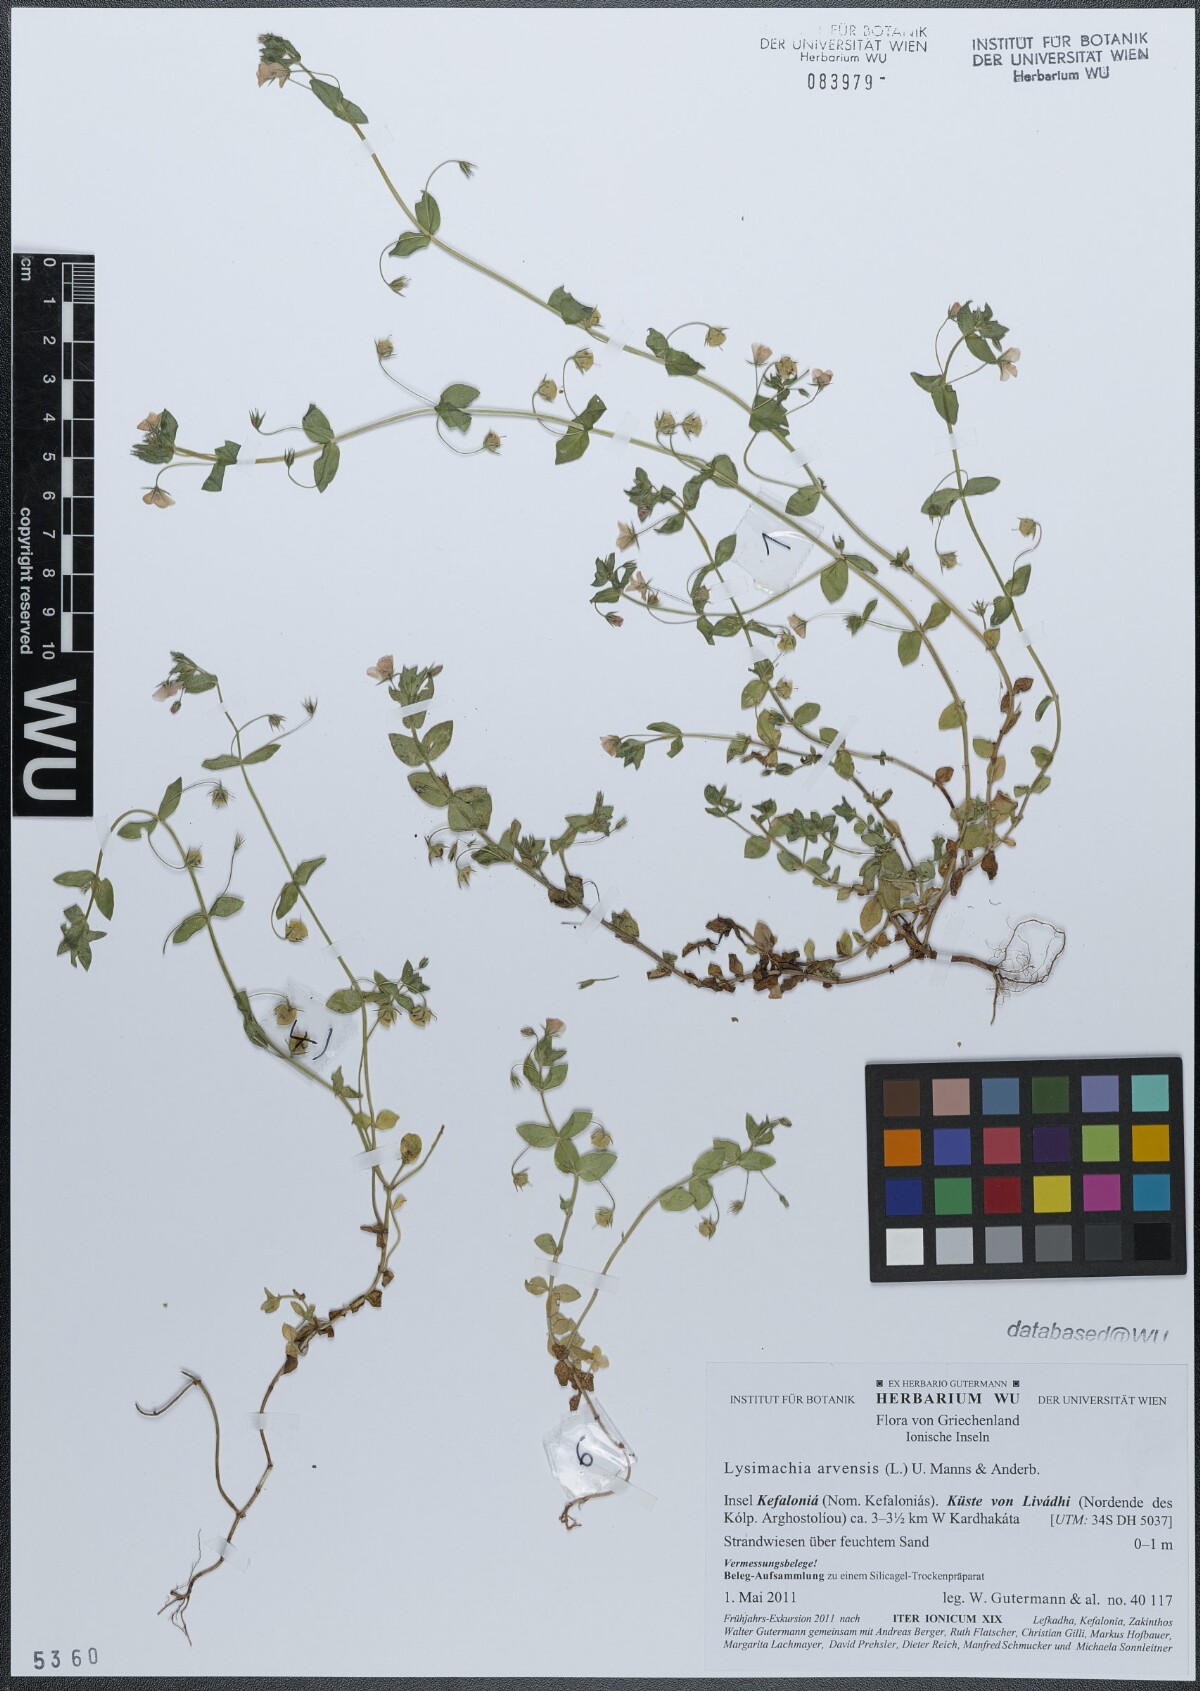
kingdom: Plantae
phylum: Tracheophyta
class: Magnoliopsida
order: Ericales
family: Primulaceae
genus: Lysimachia
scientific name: Lysimachia arvensis
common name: Scarlet pimpernel
